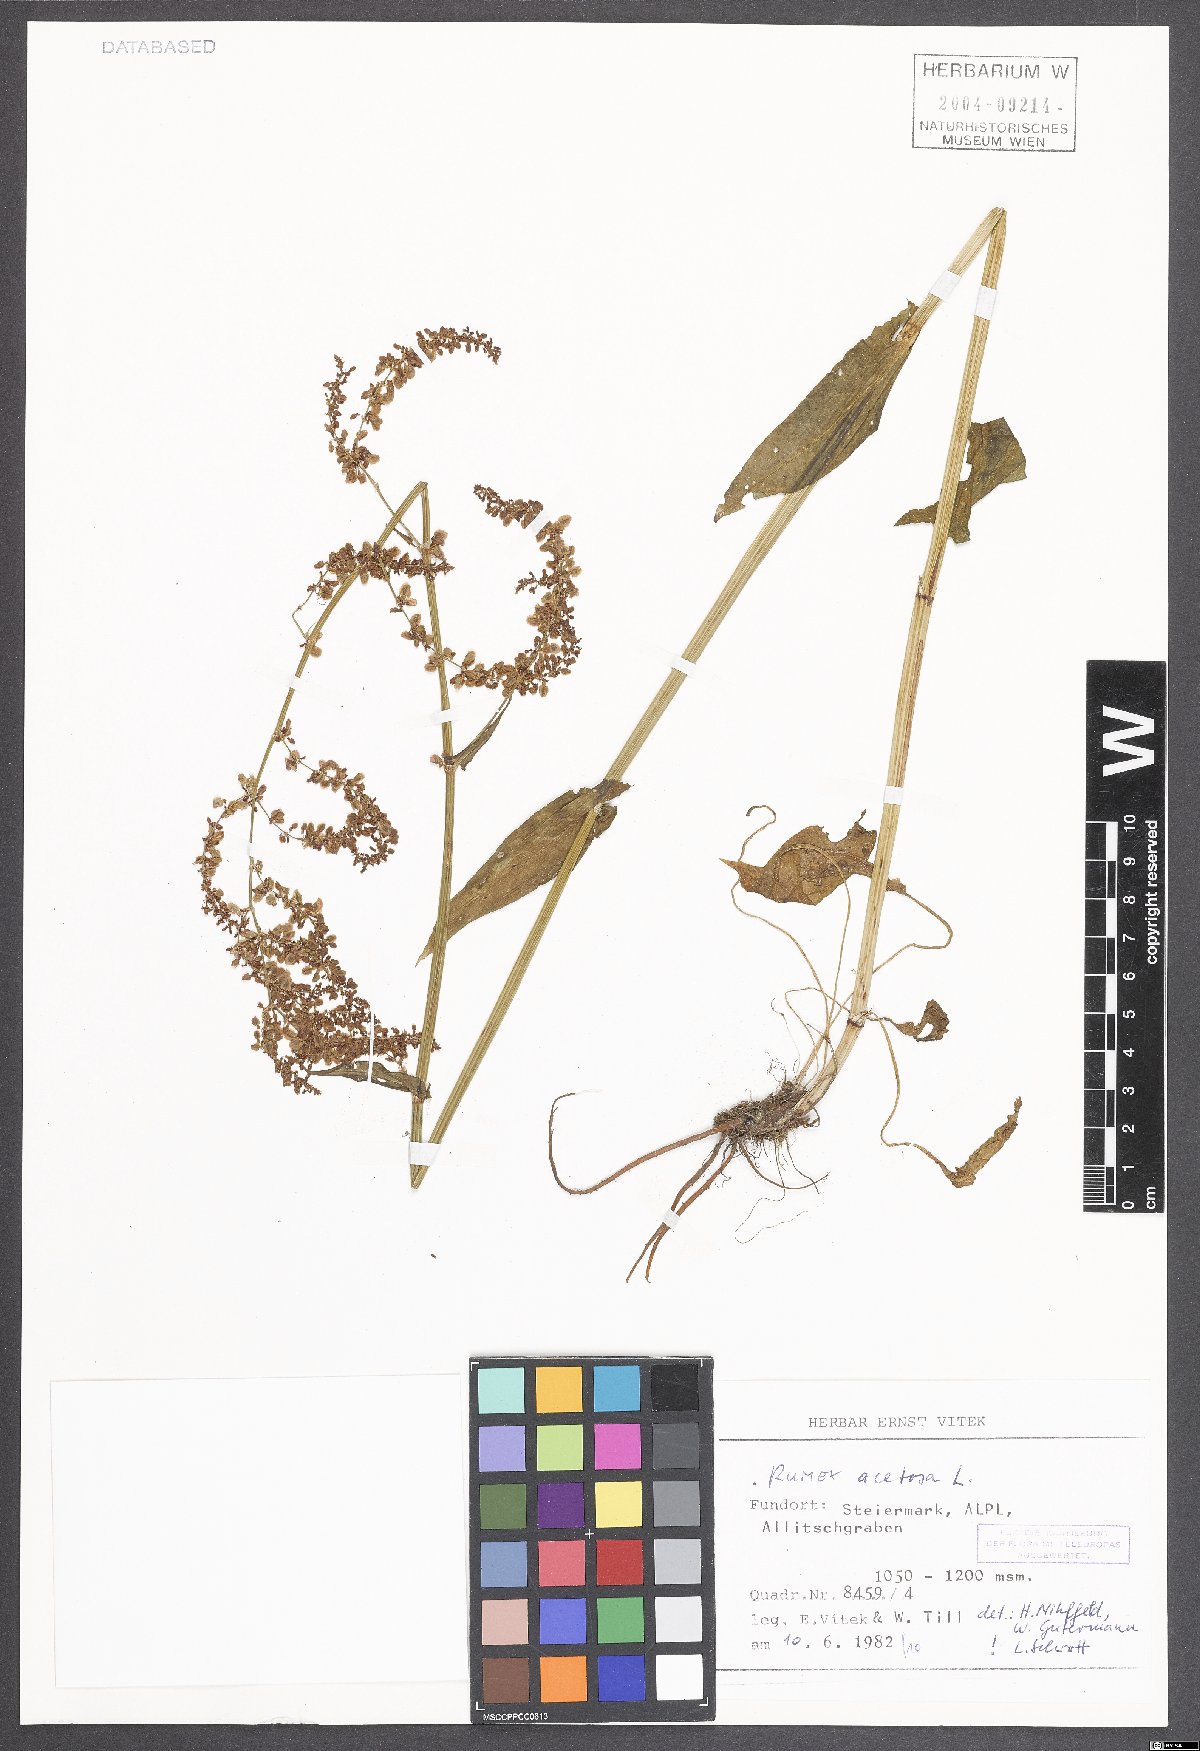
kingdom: Plantae
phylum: Tracheophyta
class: Magnoliopsida
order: Caryophyllales
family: Polygonaceae
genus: Rumex
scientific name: Rumex acetosa
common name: Garden sorrel
